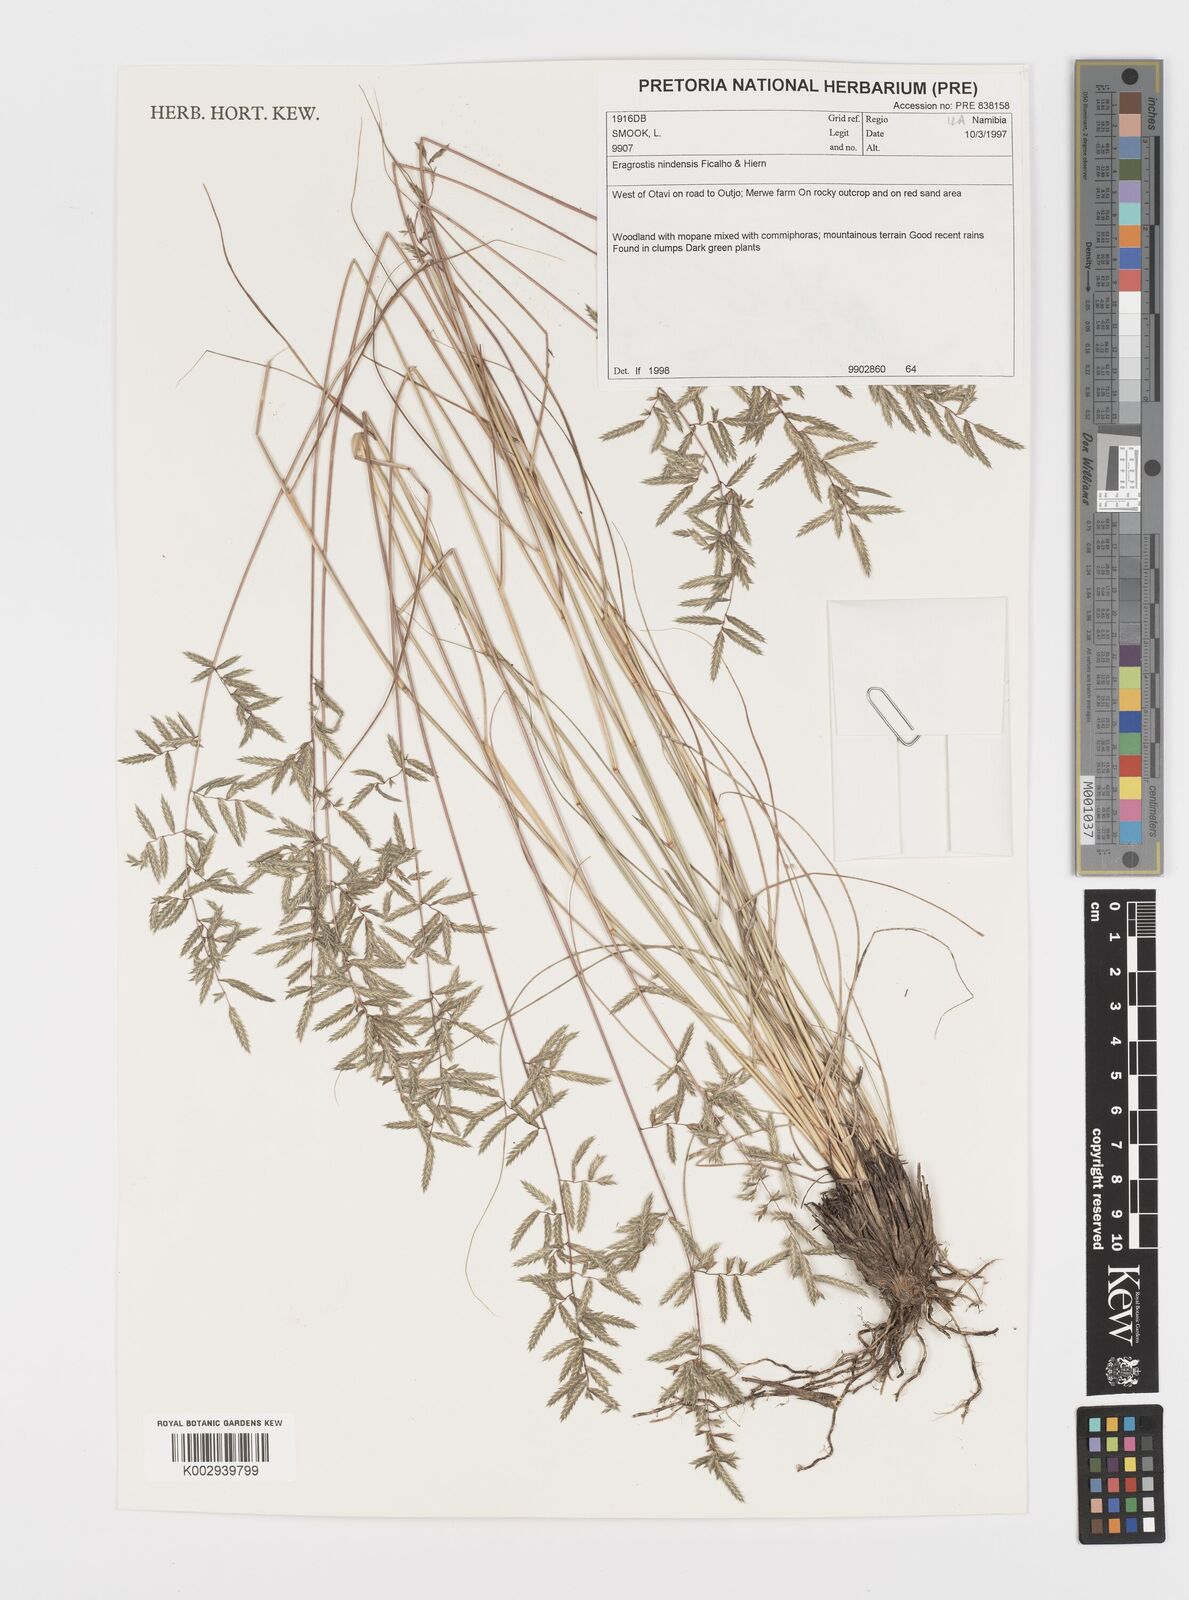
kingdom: Plantae
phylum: Tracheophyta
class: Liliopsida
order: Poales
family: Poaceae
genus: Eragrostis
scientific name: Eragrostis nindensis
